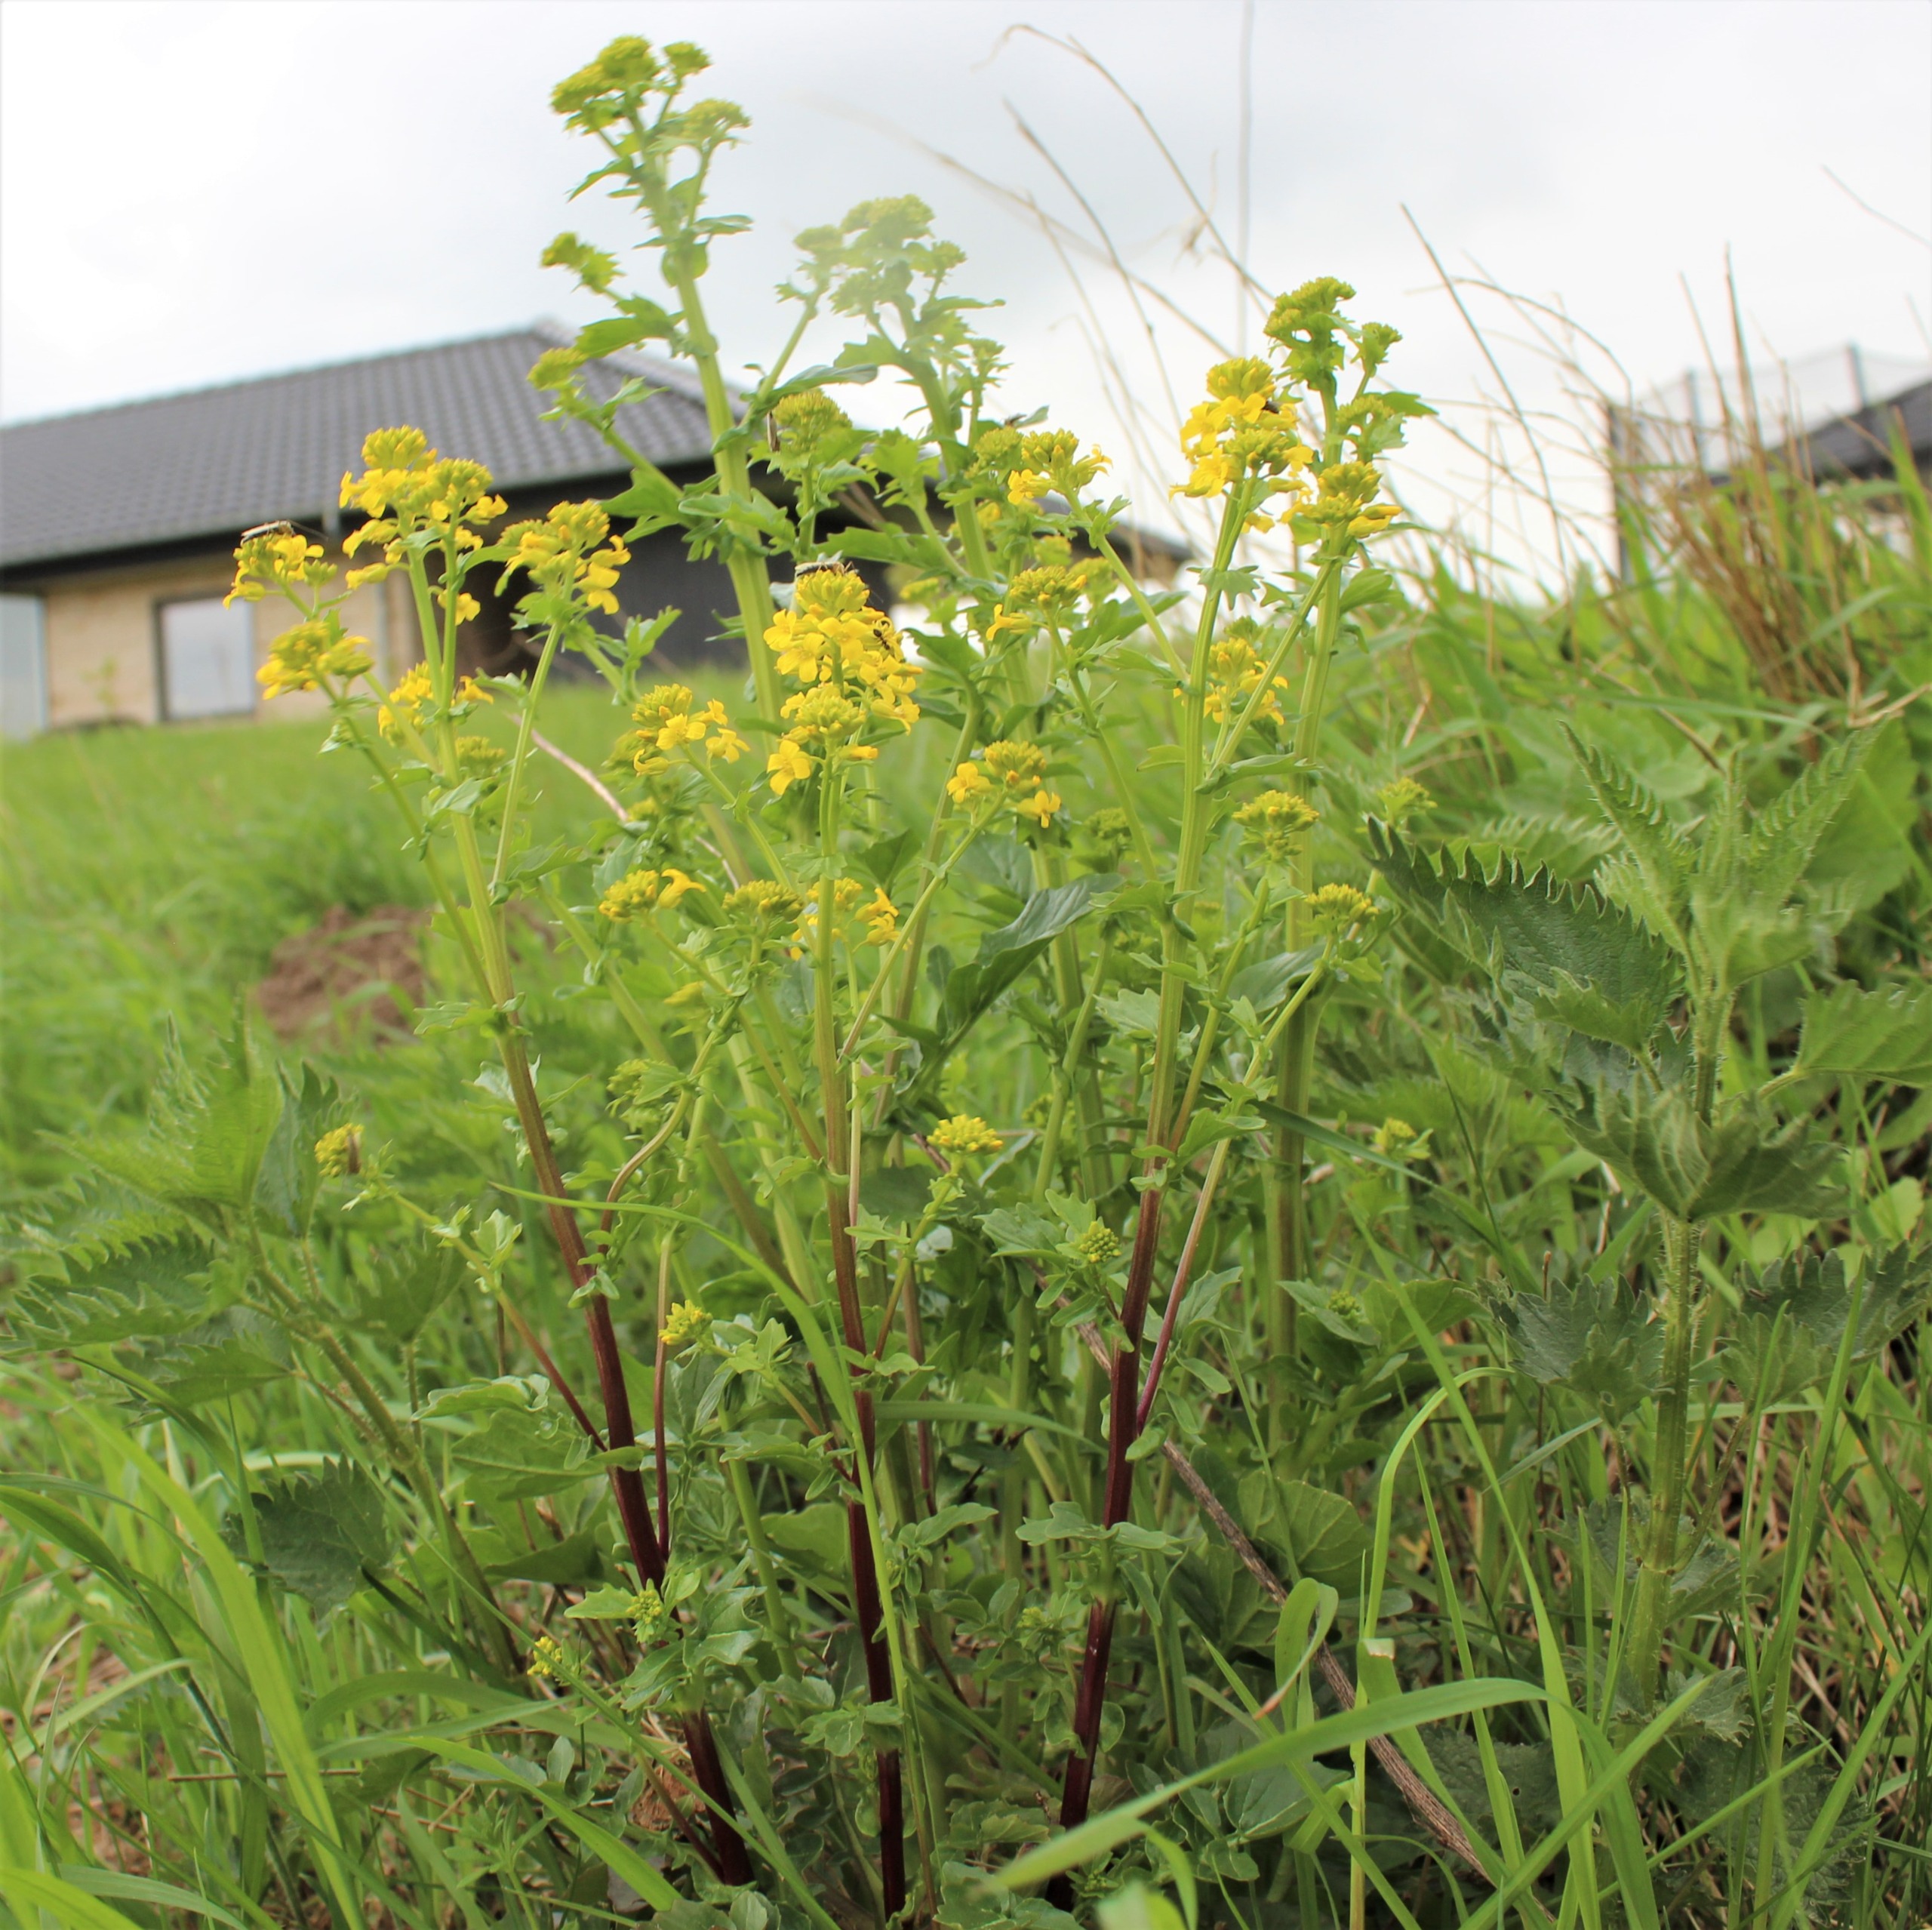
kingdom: Plantae
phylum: Tracheophyta
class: Magnoliopsida
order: Brassicales
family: Brassicaceae
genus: Barbarea
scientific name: Barbarea vulgaris
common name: Almindelig vinterkarse
